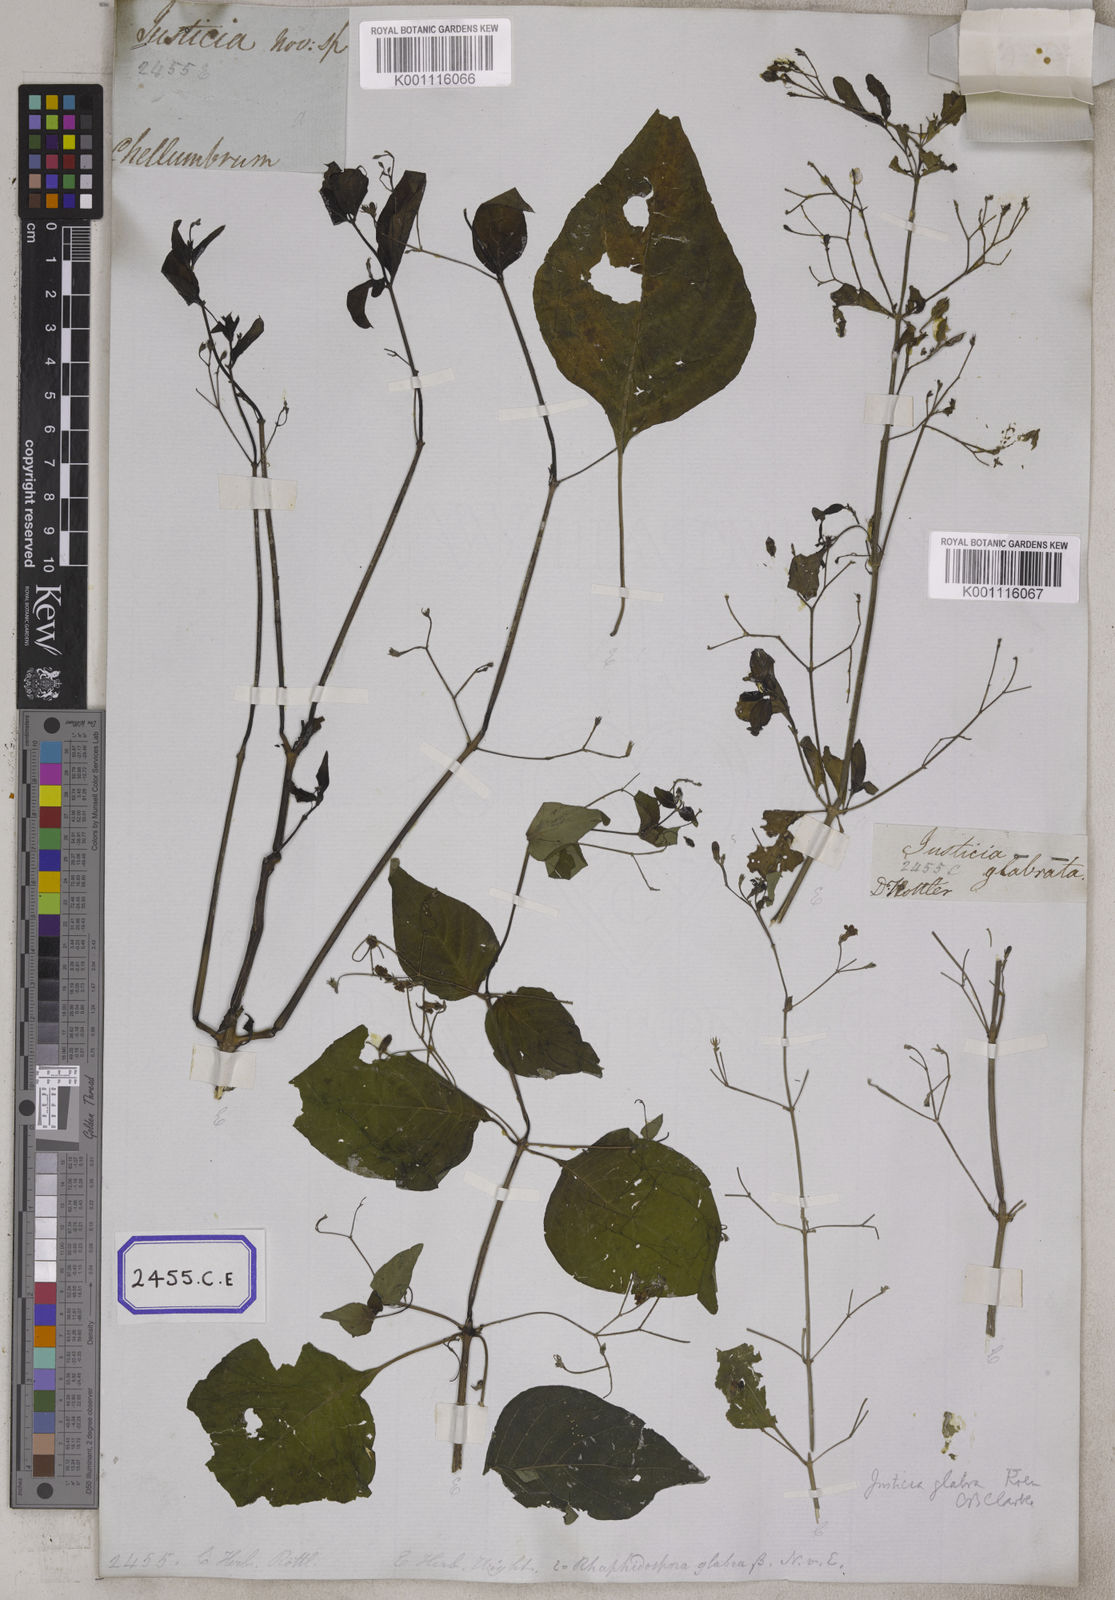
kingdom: Plantae
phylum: Tracheophyta
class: Magnoliopsida
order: Lamiales
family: Acanthaceae
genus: Justicia
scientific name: Justicia
